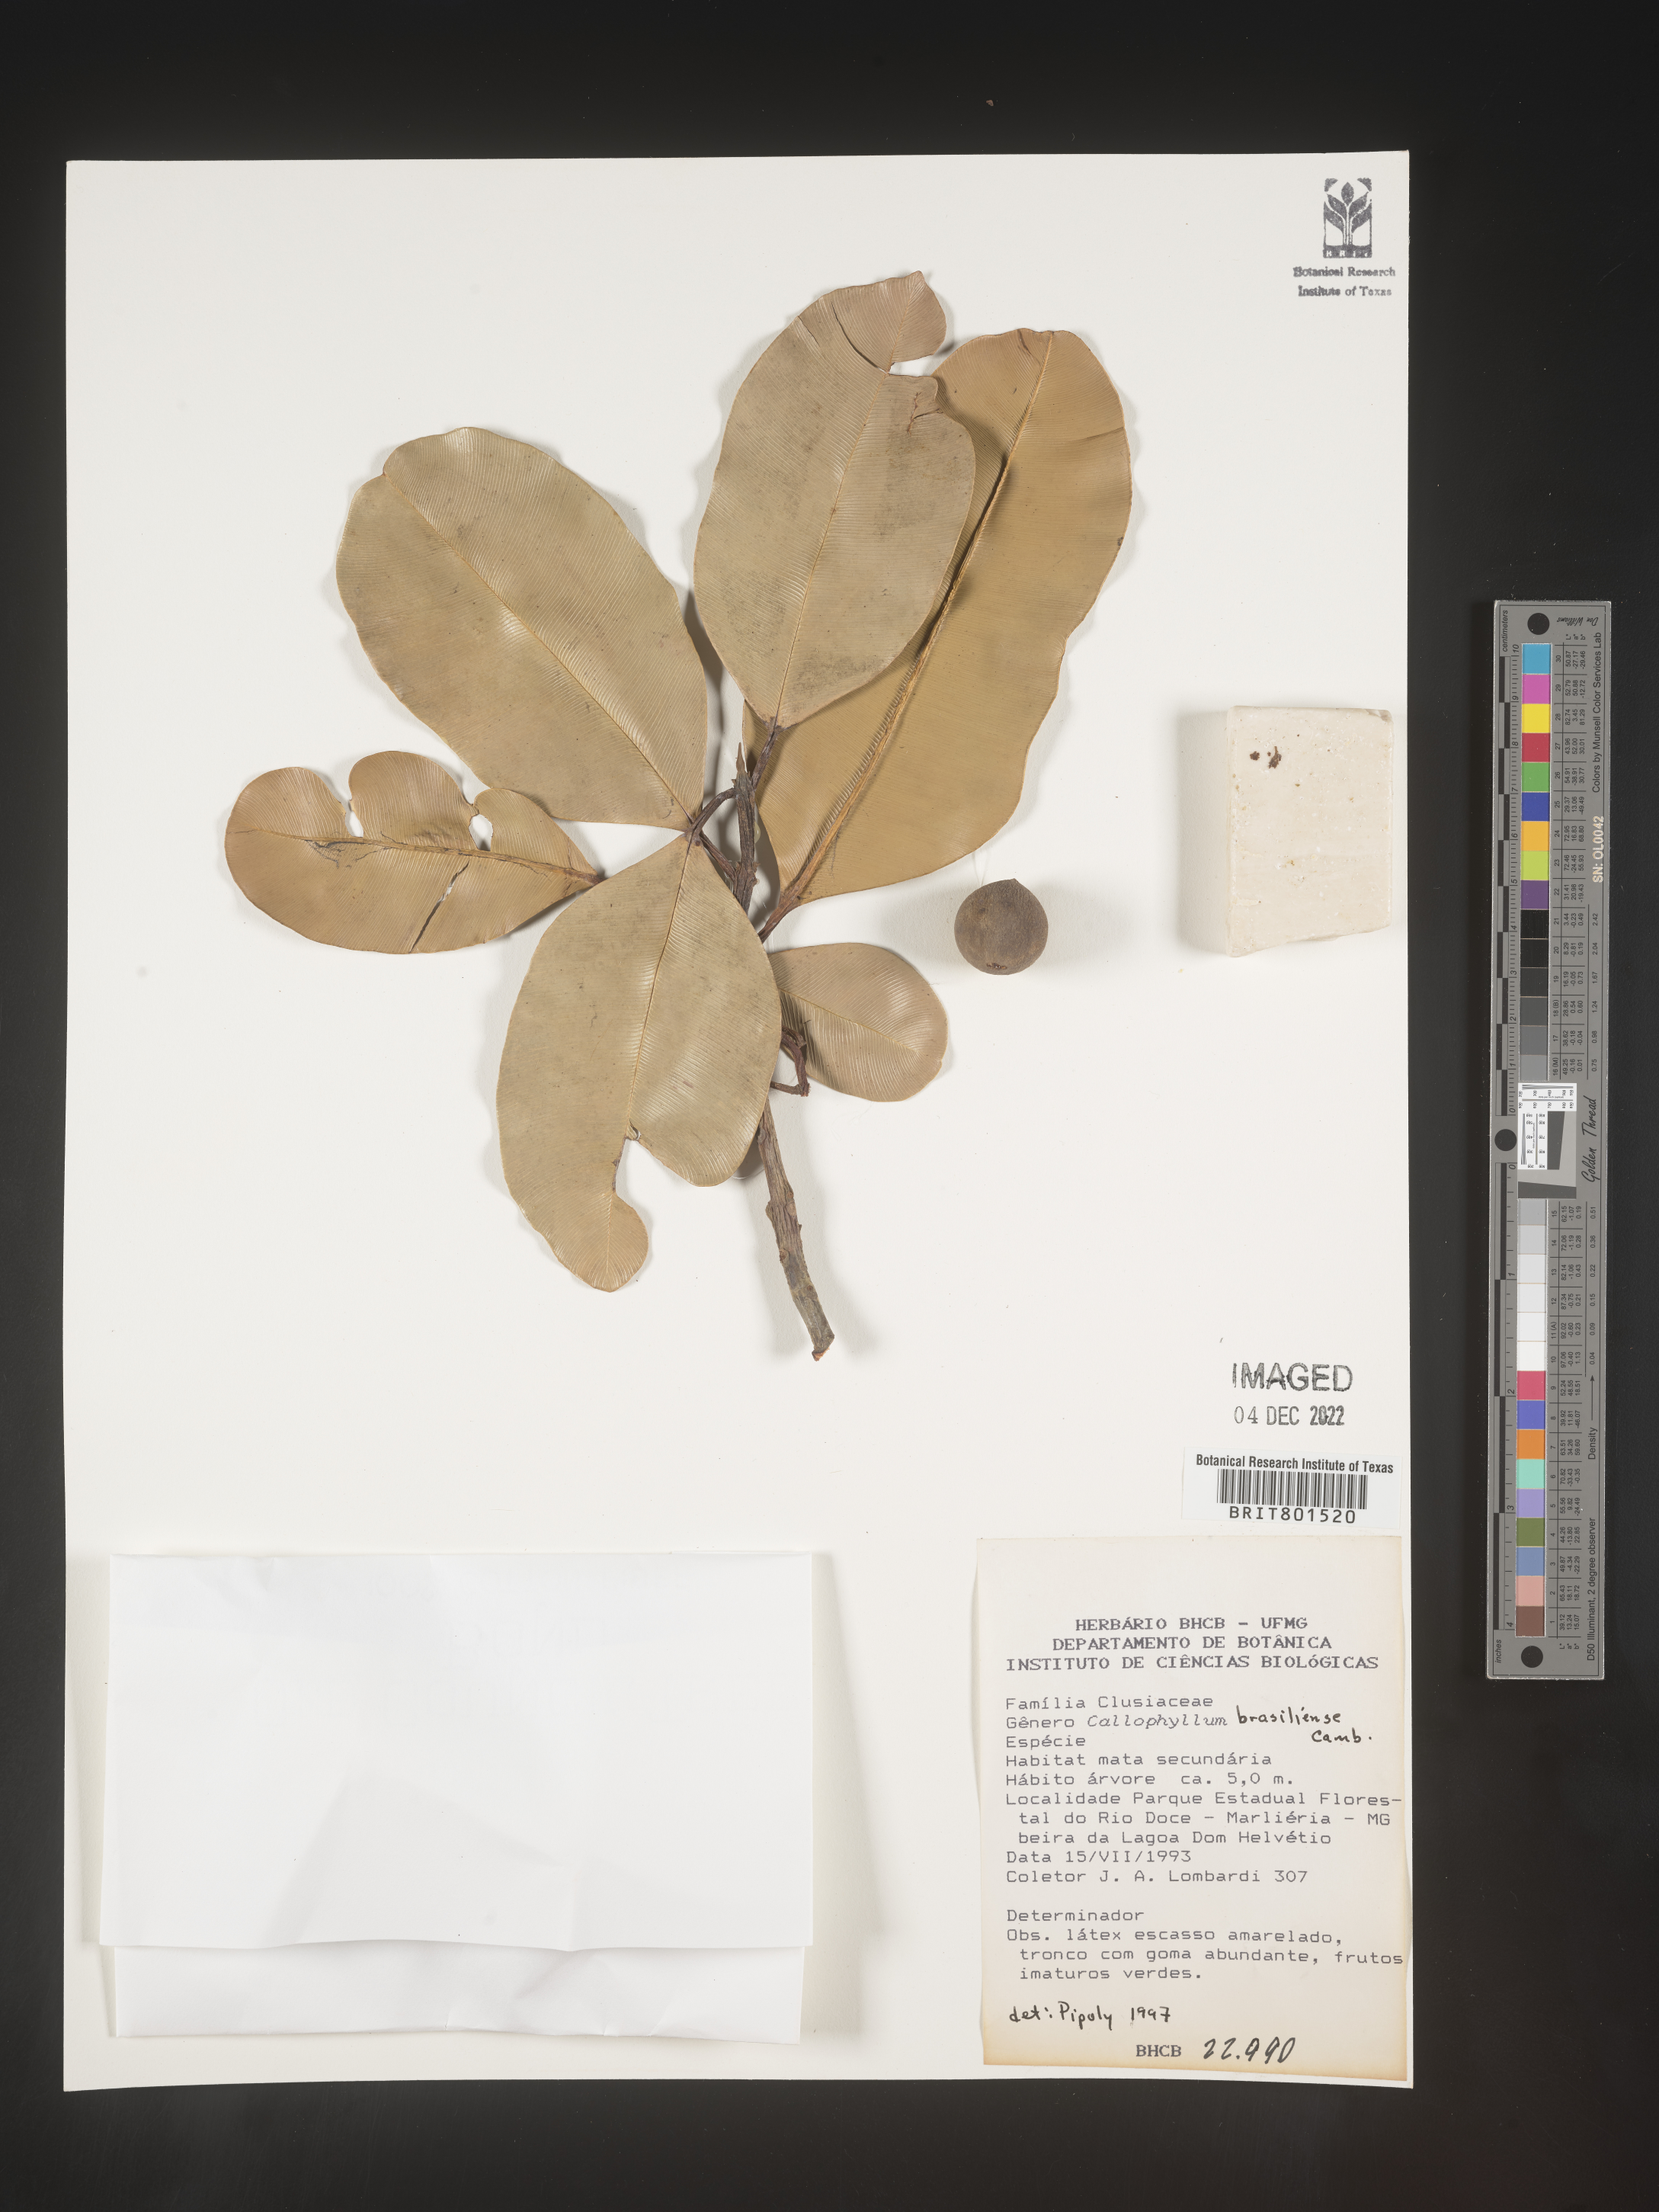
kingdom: Plantae
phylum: Tracheophyta
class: Magnoliopsida
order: Malpighiales
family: Calophyllaceae
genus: Calophyllum
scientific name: Calophyllum brasiliense
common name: Santa maria
